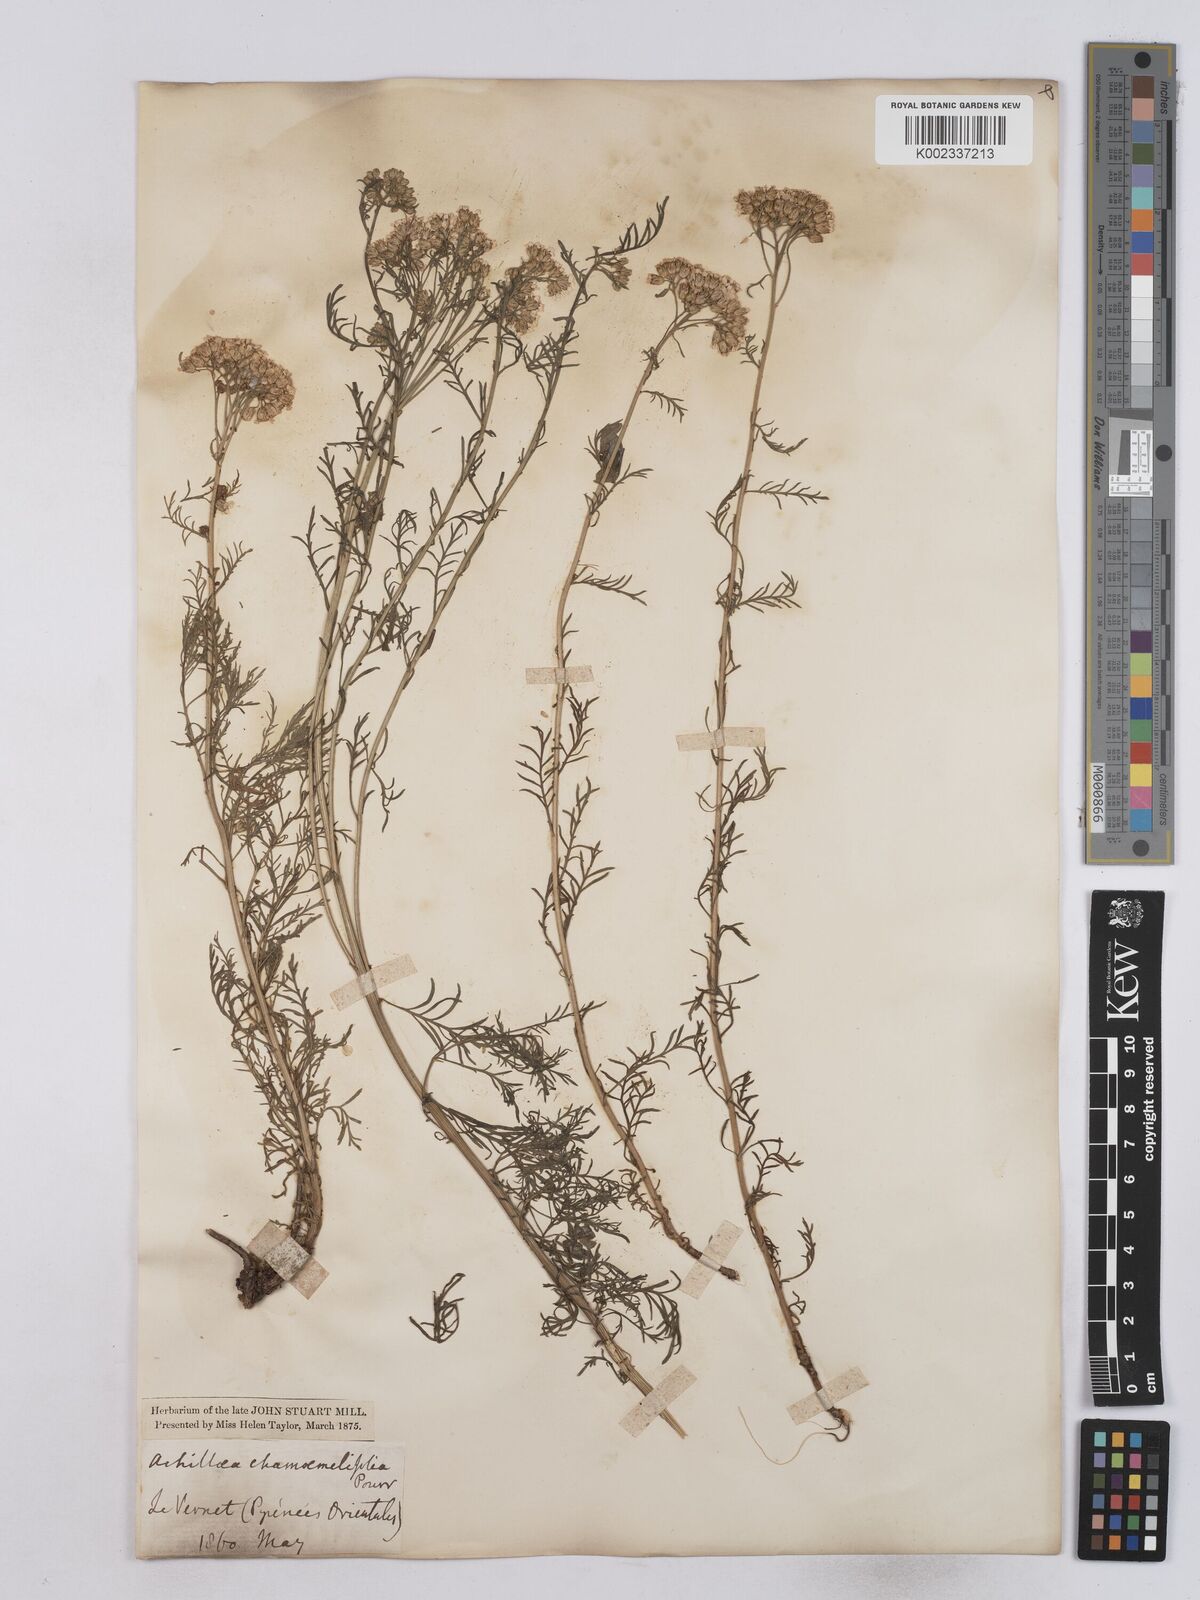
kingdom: Plantae
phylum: Tracheophyta
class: Magnoliopsida
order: Asterales
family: Asteraceae
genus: Achillea
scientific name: Achillea chamaemelifolia
